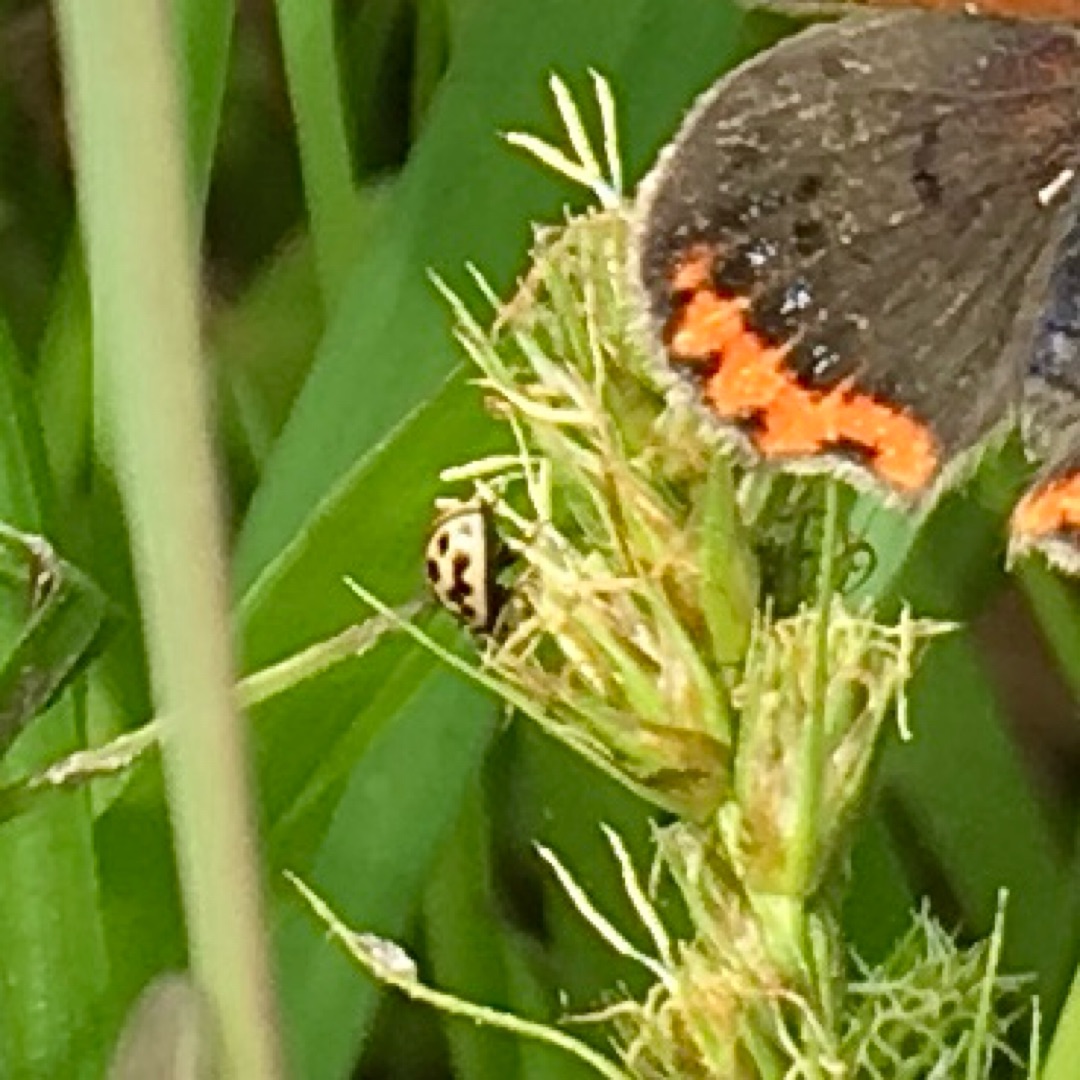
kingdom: Animalia
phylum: Arthropoda
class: Insecta
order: Coleoptera
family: Coccinellidae
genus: Tytthaspis
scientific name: Tytthaspis sedecimpunctata
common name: Sekstenprikket mariehøne
